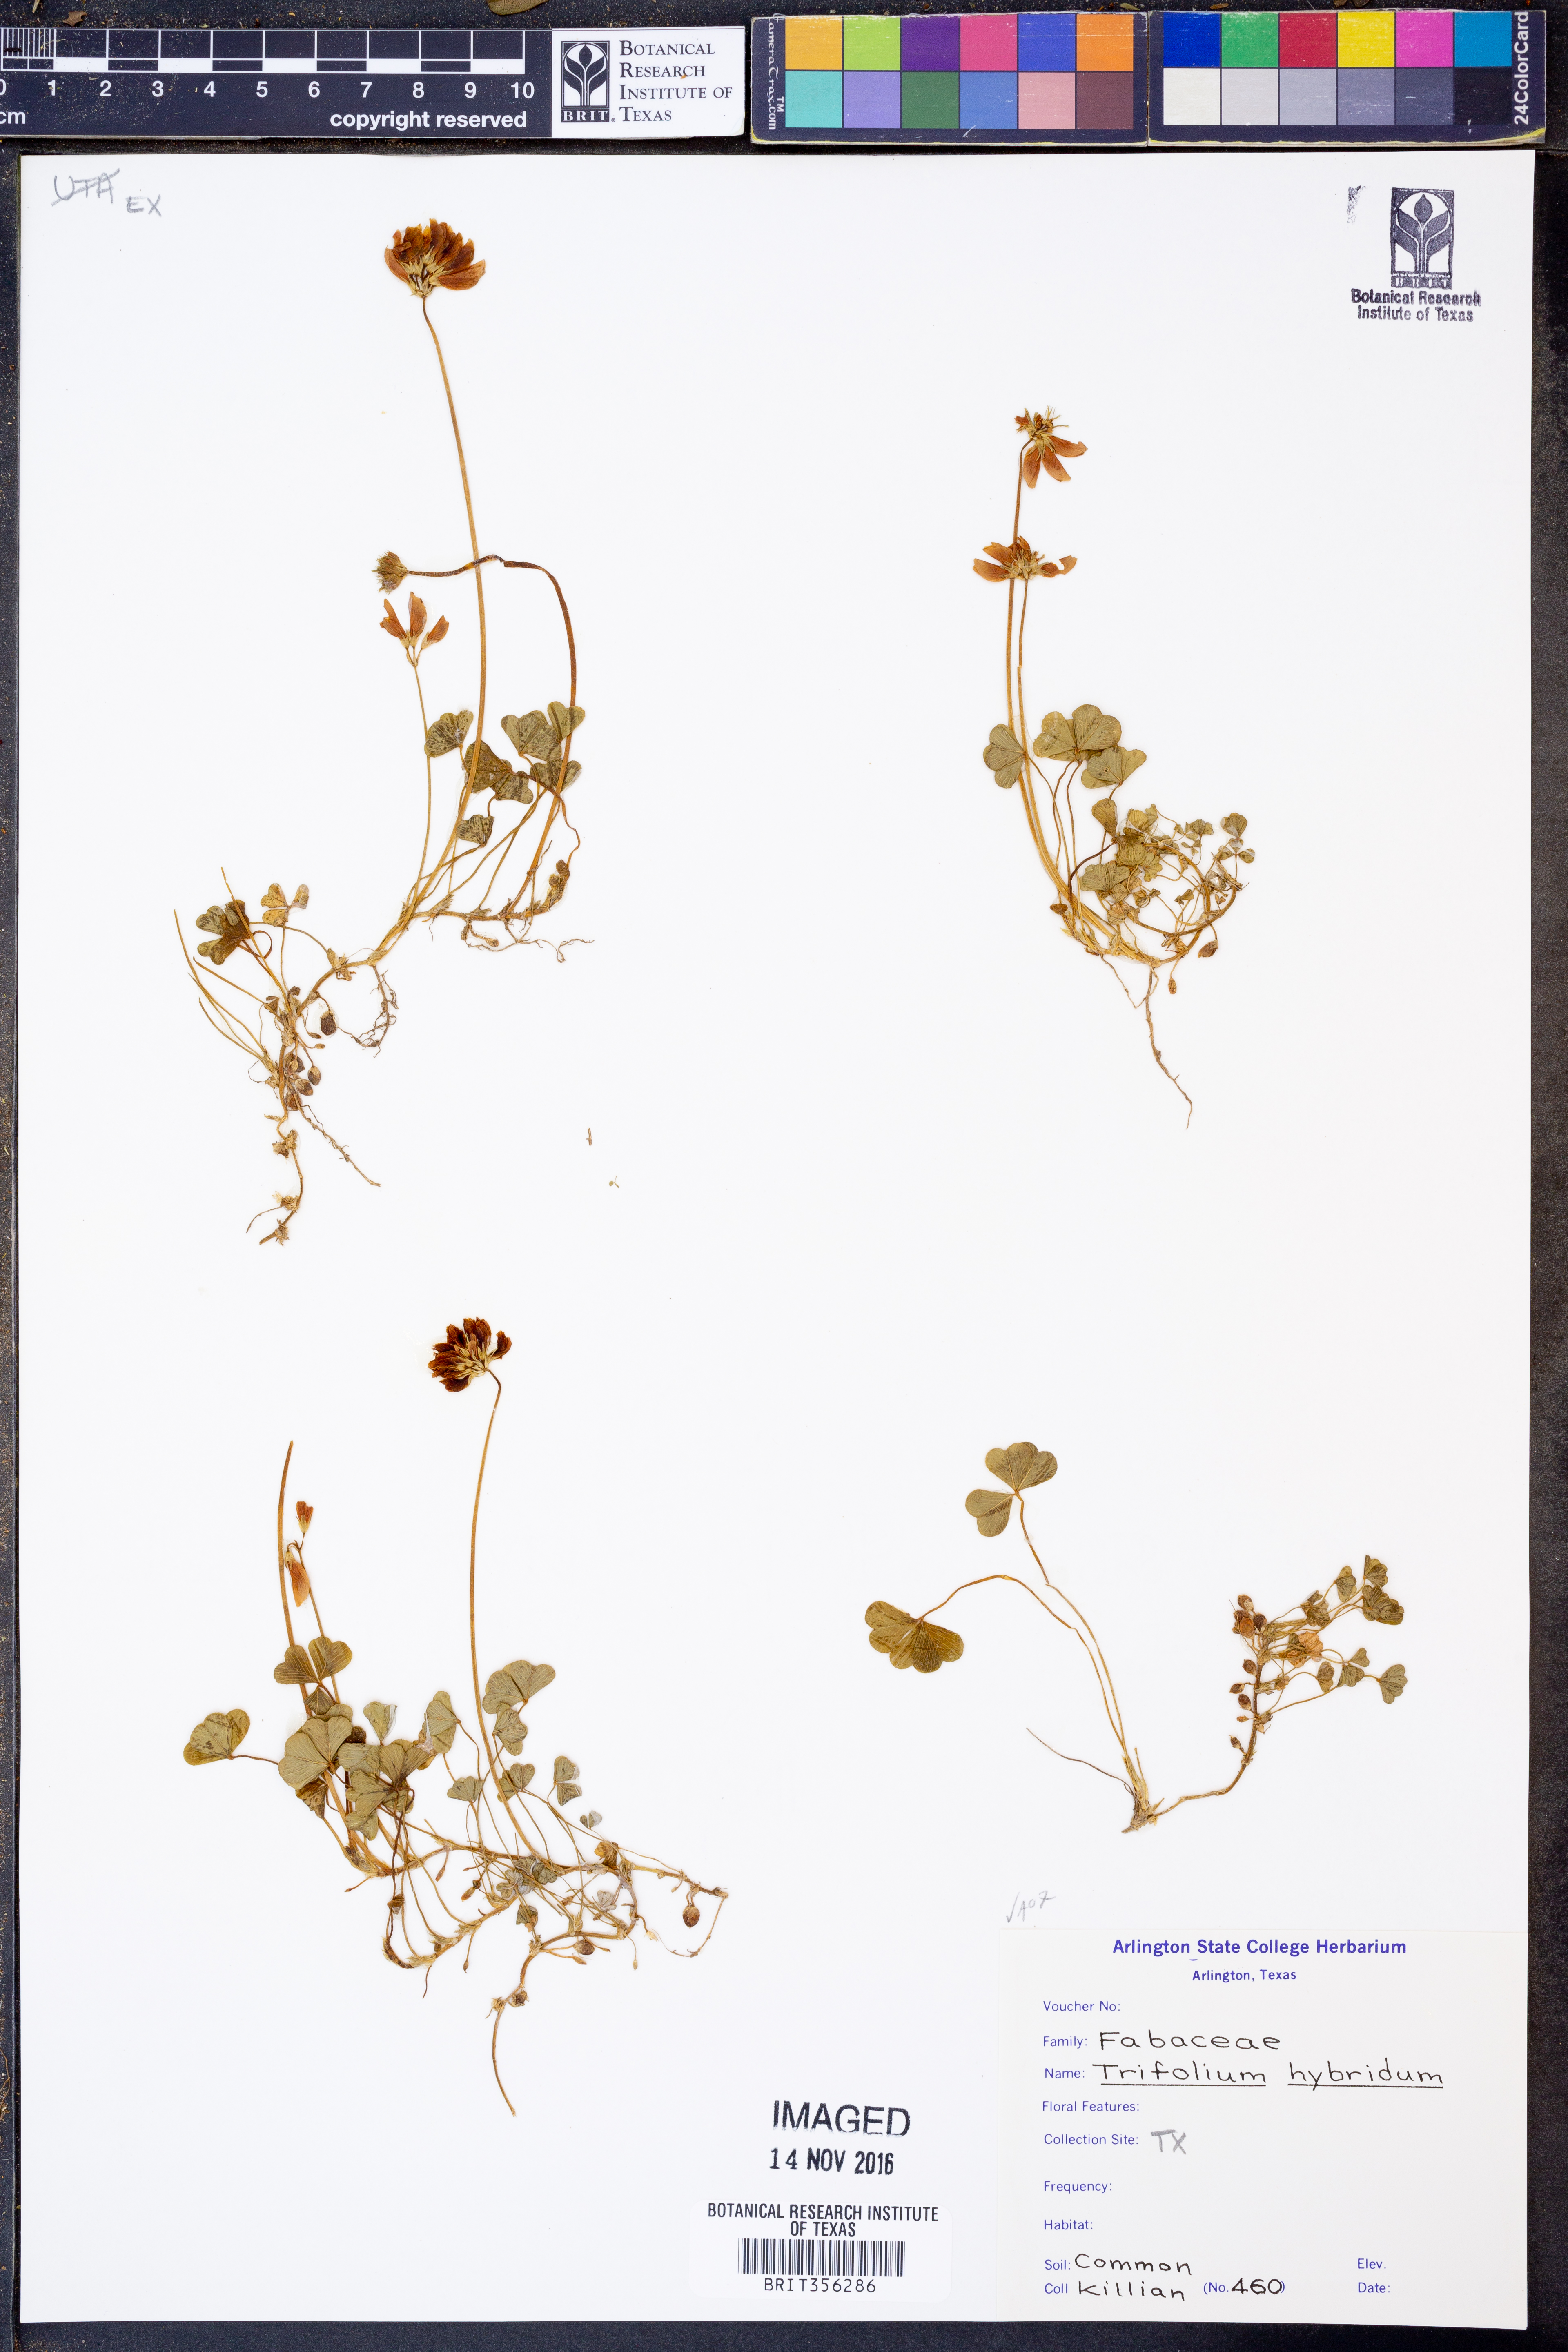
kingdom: Plantae
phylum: Tracheophyta
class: Magnoliopsida
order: Fabales
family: Fabaceae
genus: Trifolium
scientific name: Trifolium hybridum
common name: Alsike clover
